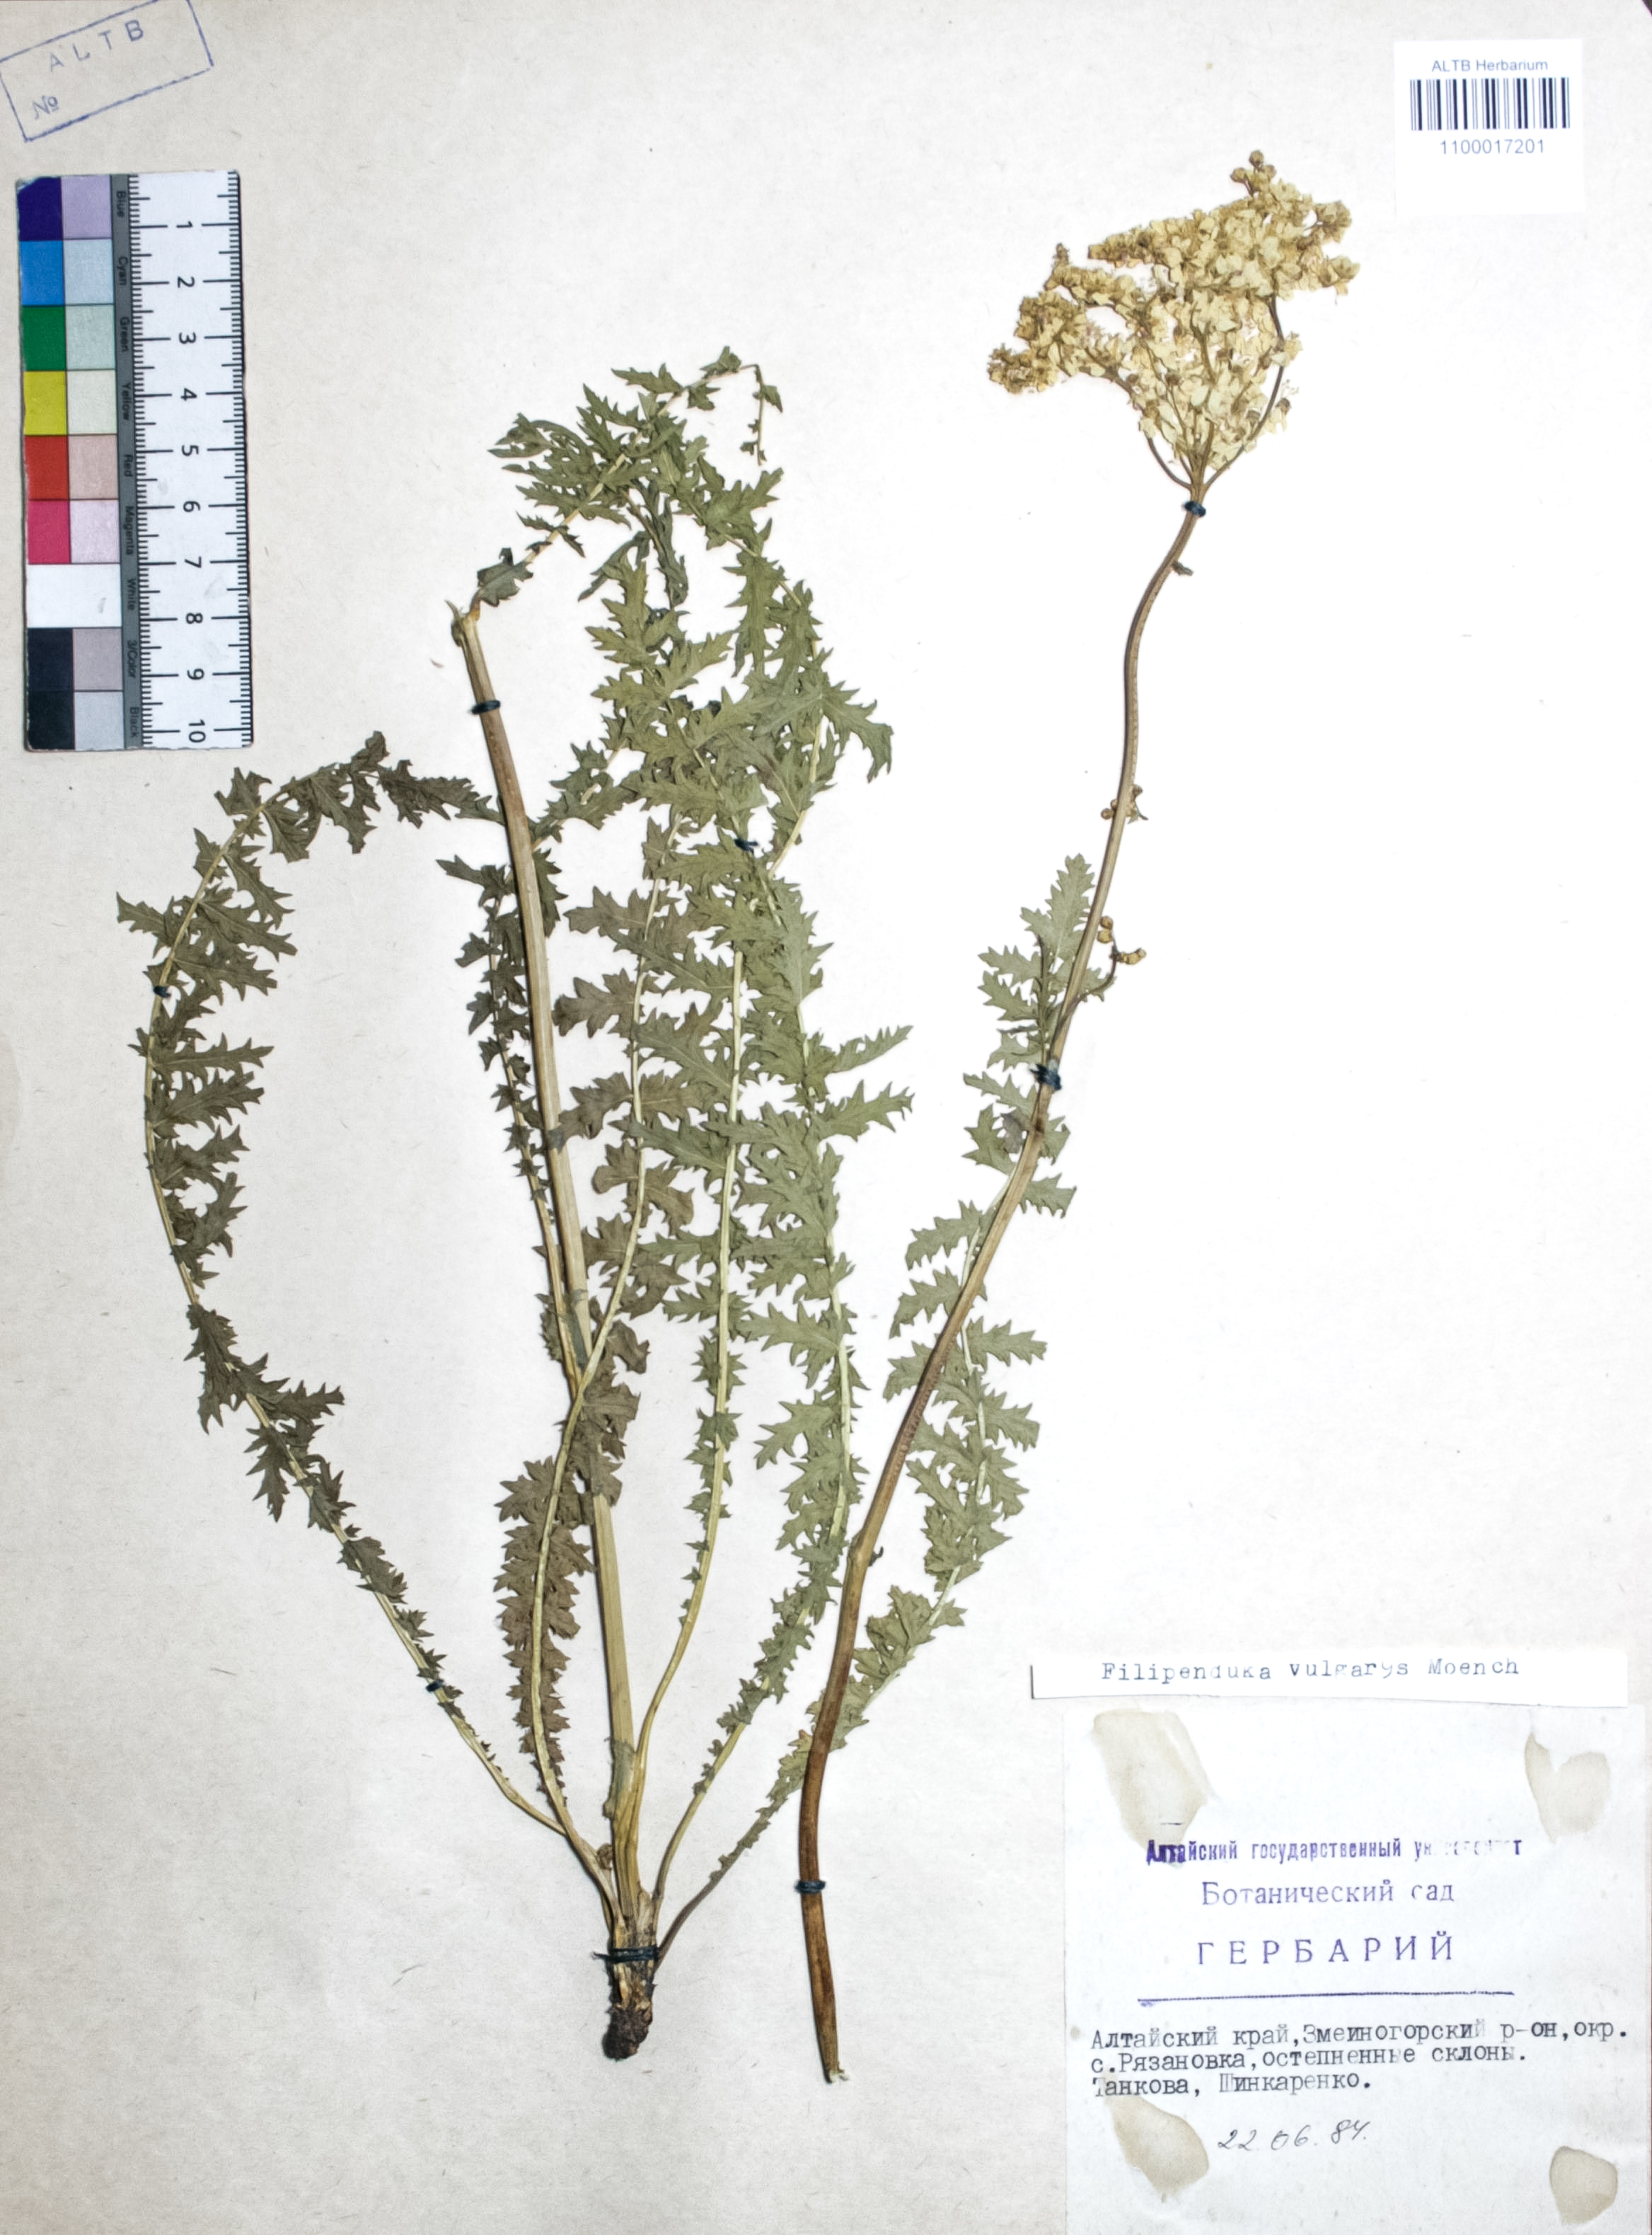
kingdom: Plantae
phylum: Tracheophyta
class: Magnoliopsida
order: Rosales
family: Rosaceae
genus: Filipendula
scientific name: Filipendula vulgaris
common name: Dropwort
